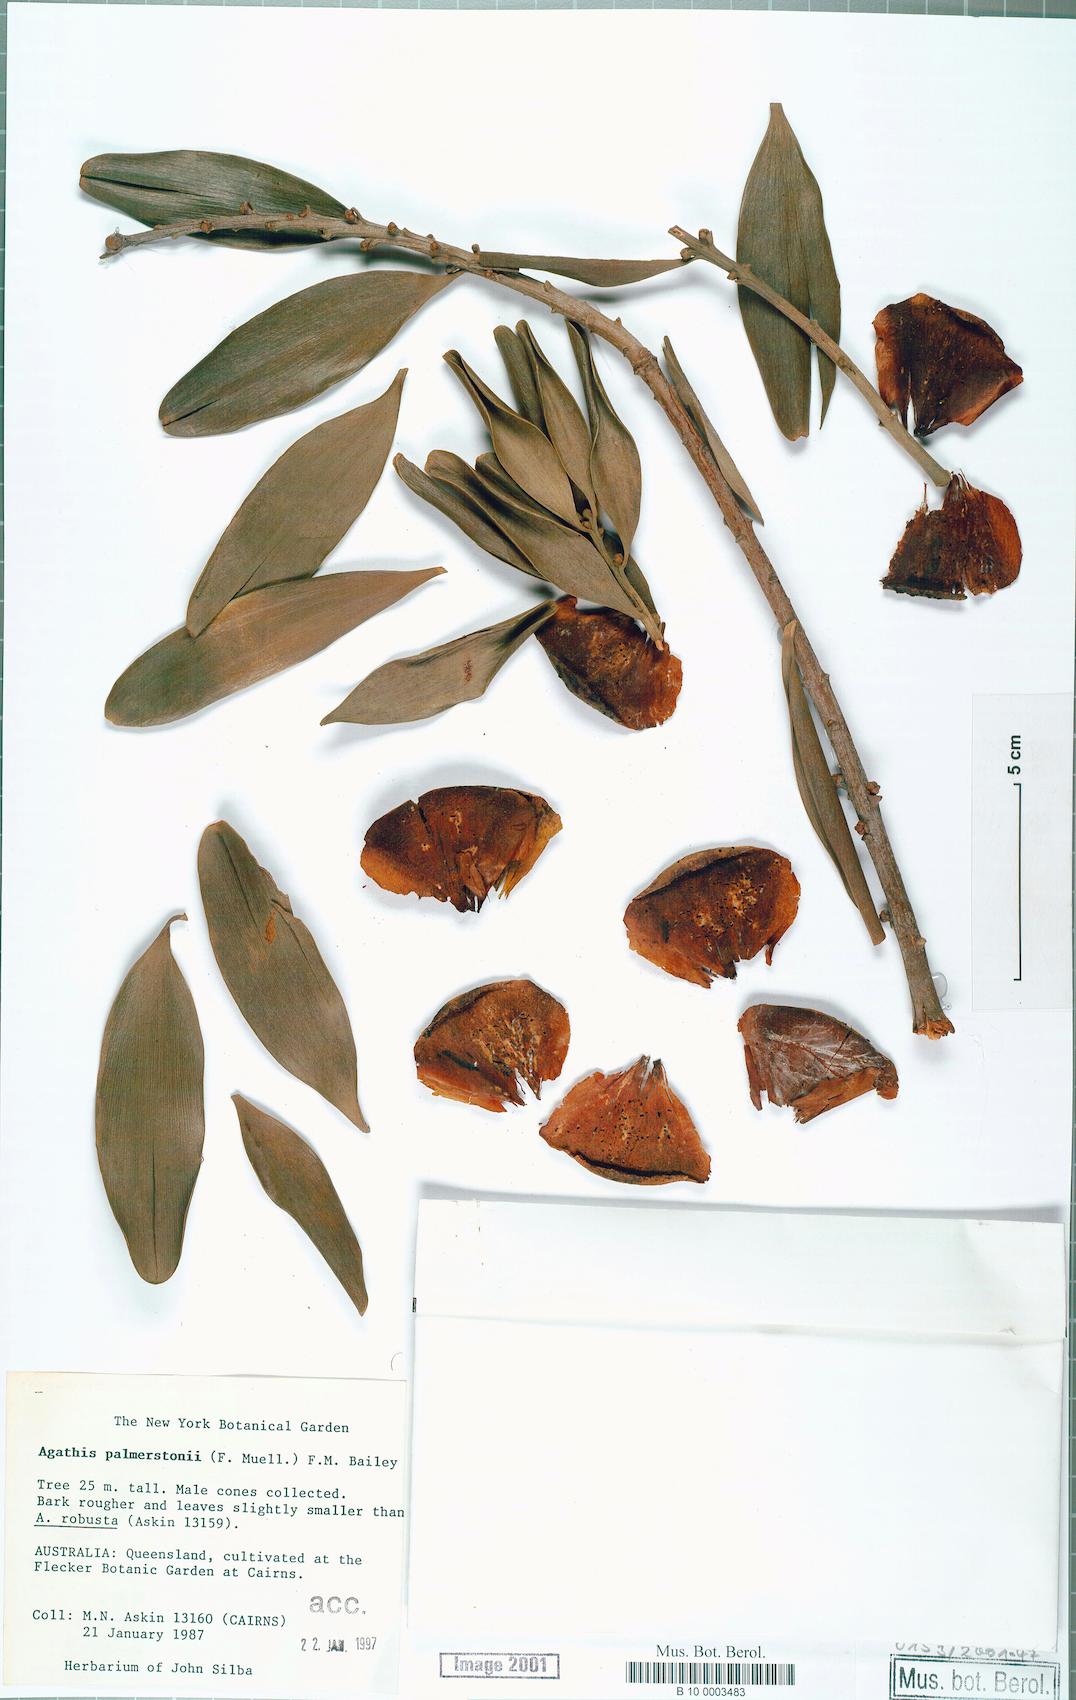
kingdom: Plantae
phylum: Tracheophyta
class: Pinopsida
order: Pinales
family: Araucariaceae
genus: Agathis
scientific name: Agathis robusta
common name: Australian-kauri
